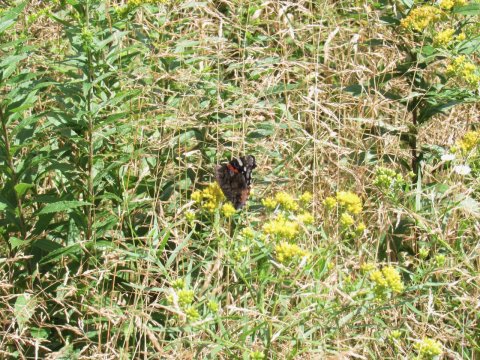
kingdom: Animalia
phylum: Arthropoda
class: Insecta
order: Lepidoptera
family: Nymphalidae
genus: Vanessa
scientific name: Vanessa atalanta
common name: Red Admiral
